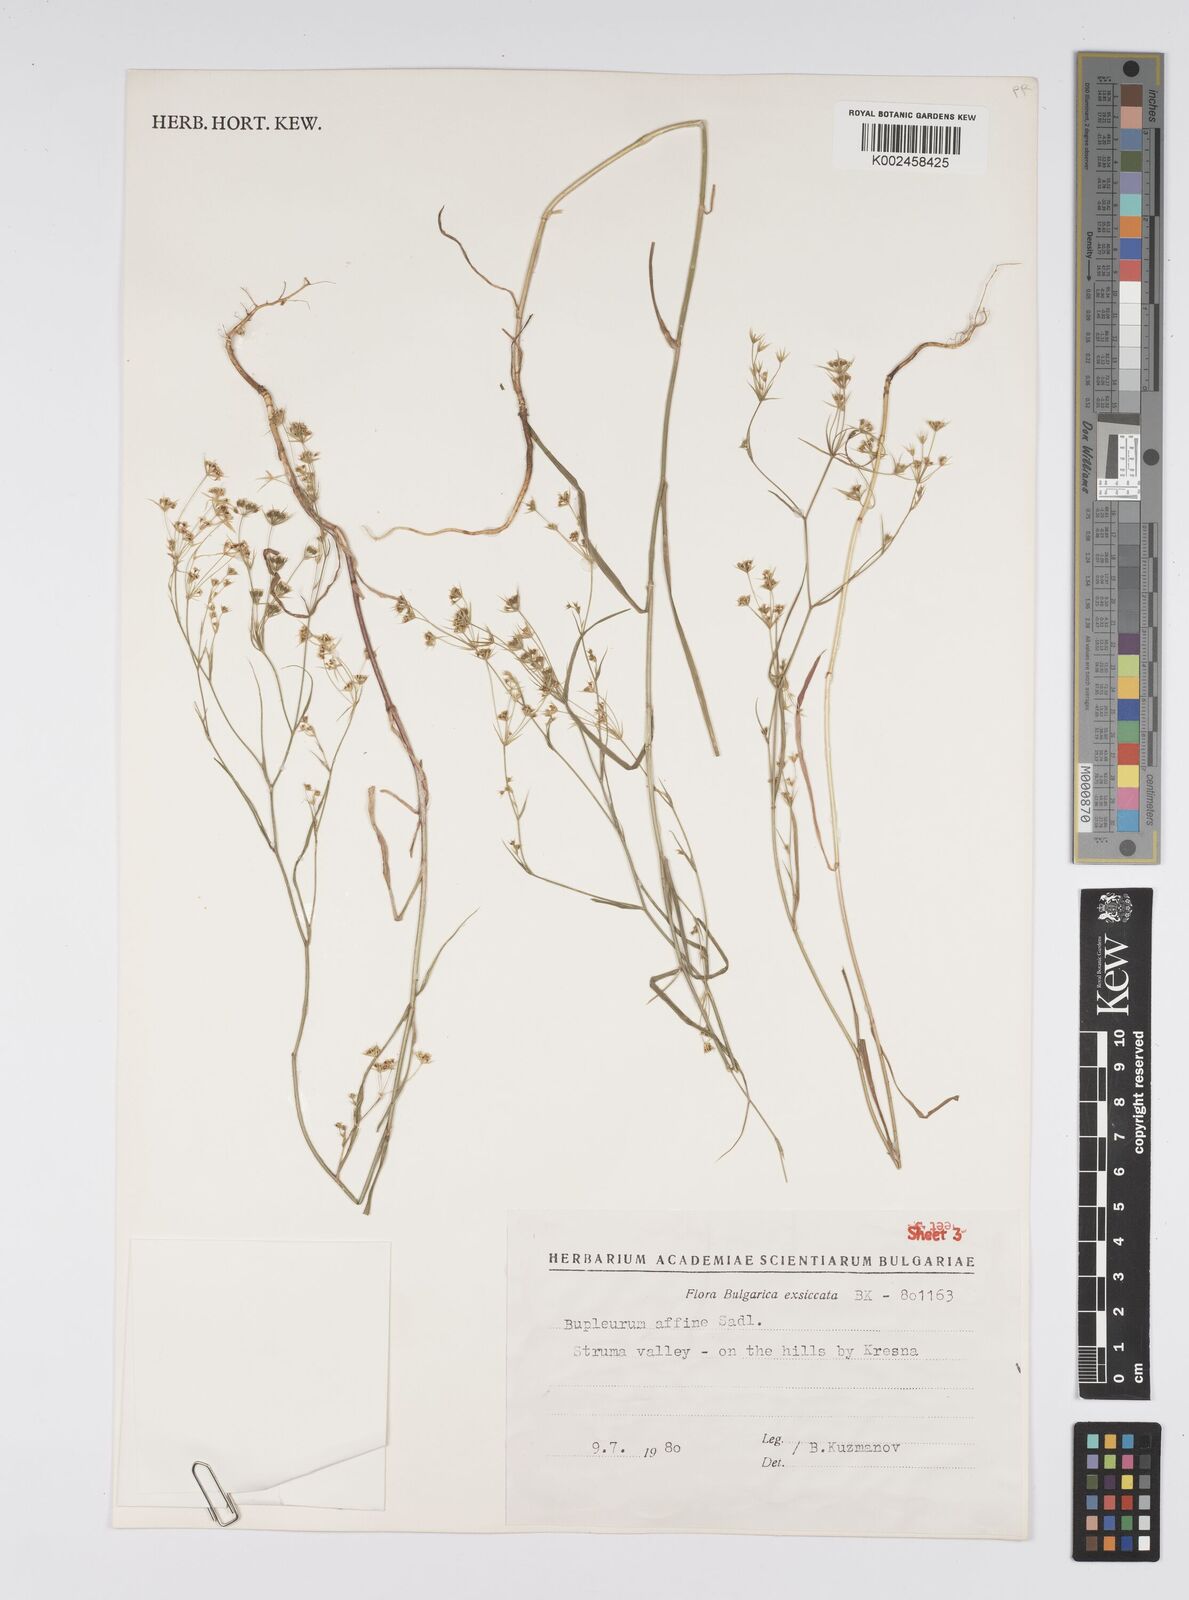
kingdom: Plantae
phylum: Tracheophyta
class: Magnoliopsida
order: Apiales
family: Apiaceae
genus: Bupleurum
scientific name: Bupleurum affine
